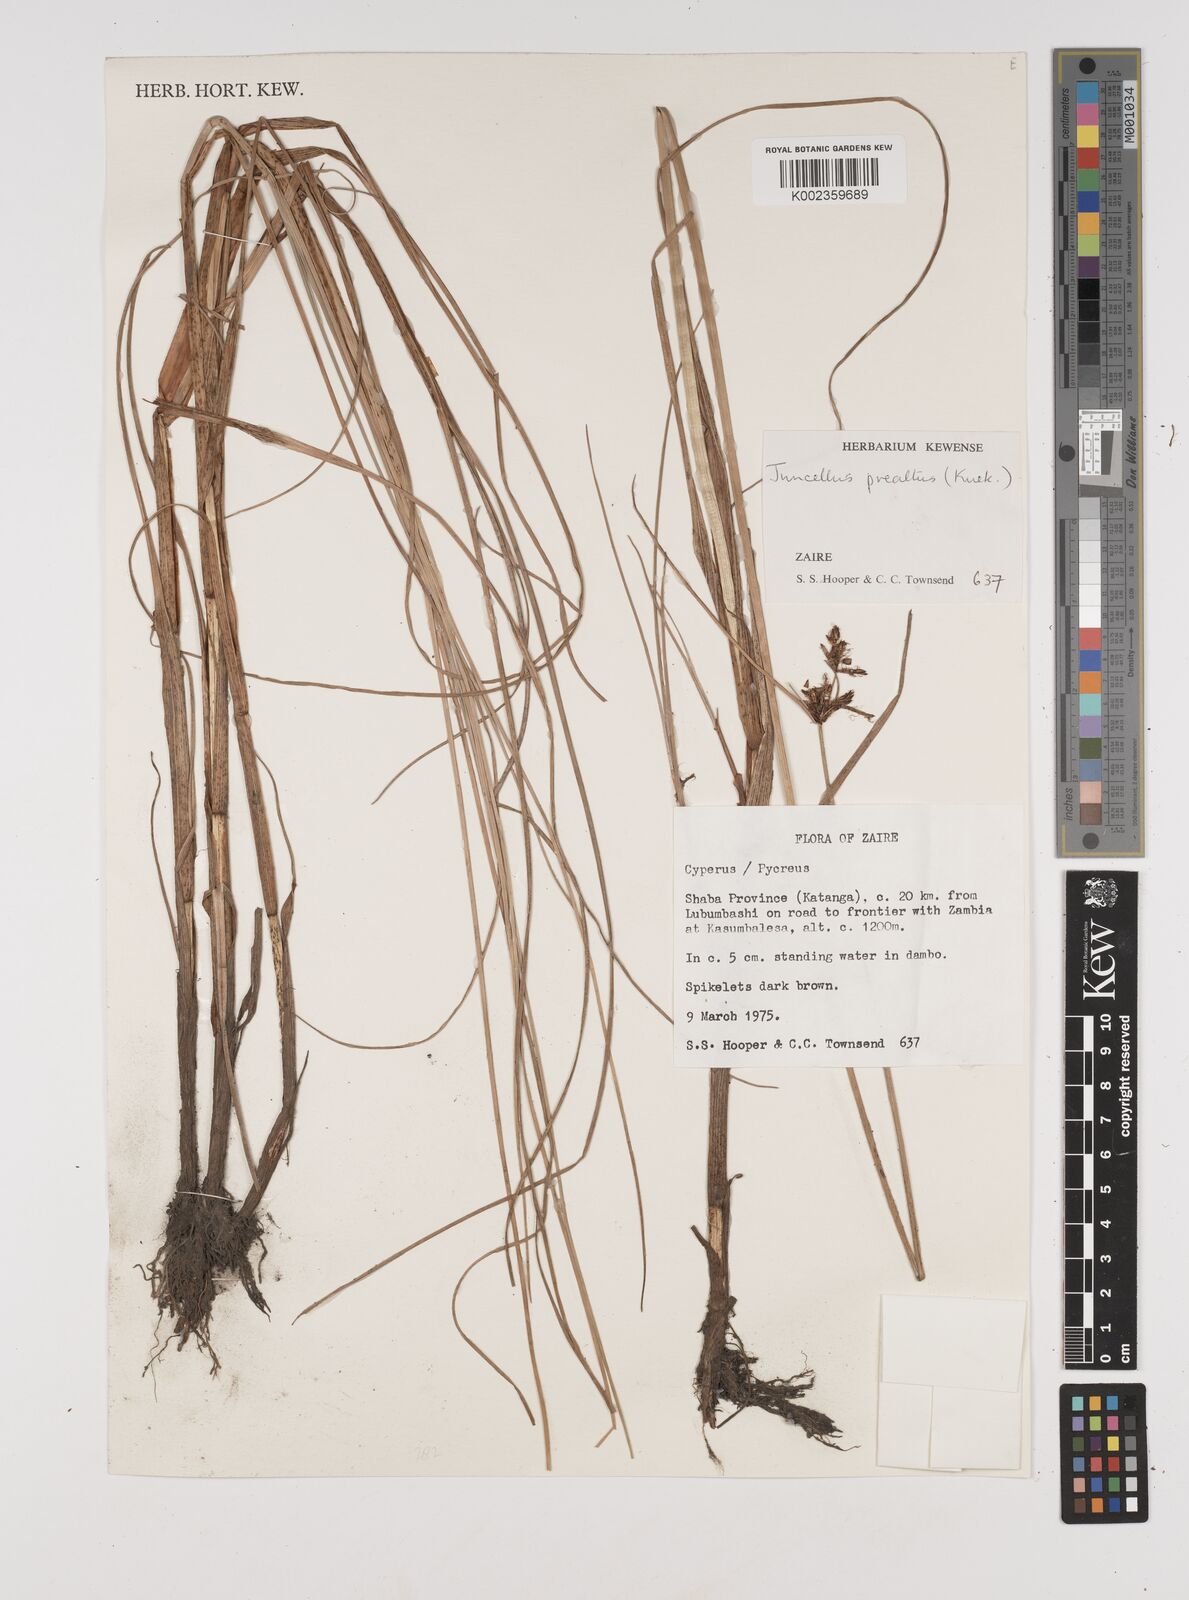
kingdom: Plantae
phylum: Tracheophyta
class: Liliopsida
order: Poales
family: Cyperaceae
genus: Cyperus
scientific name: Cyperus
